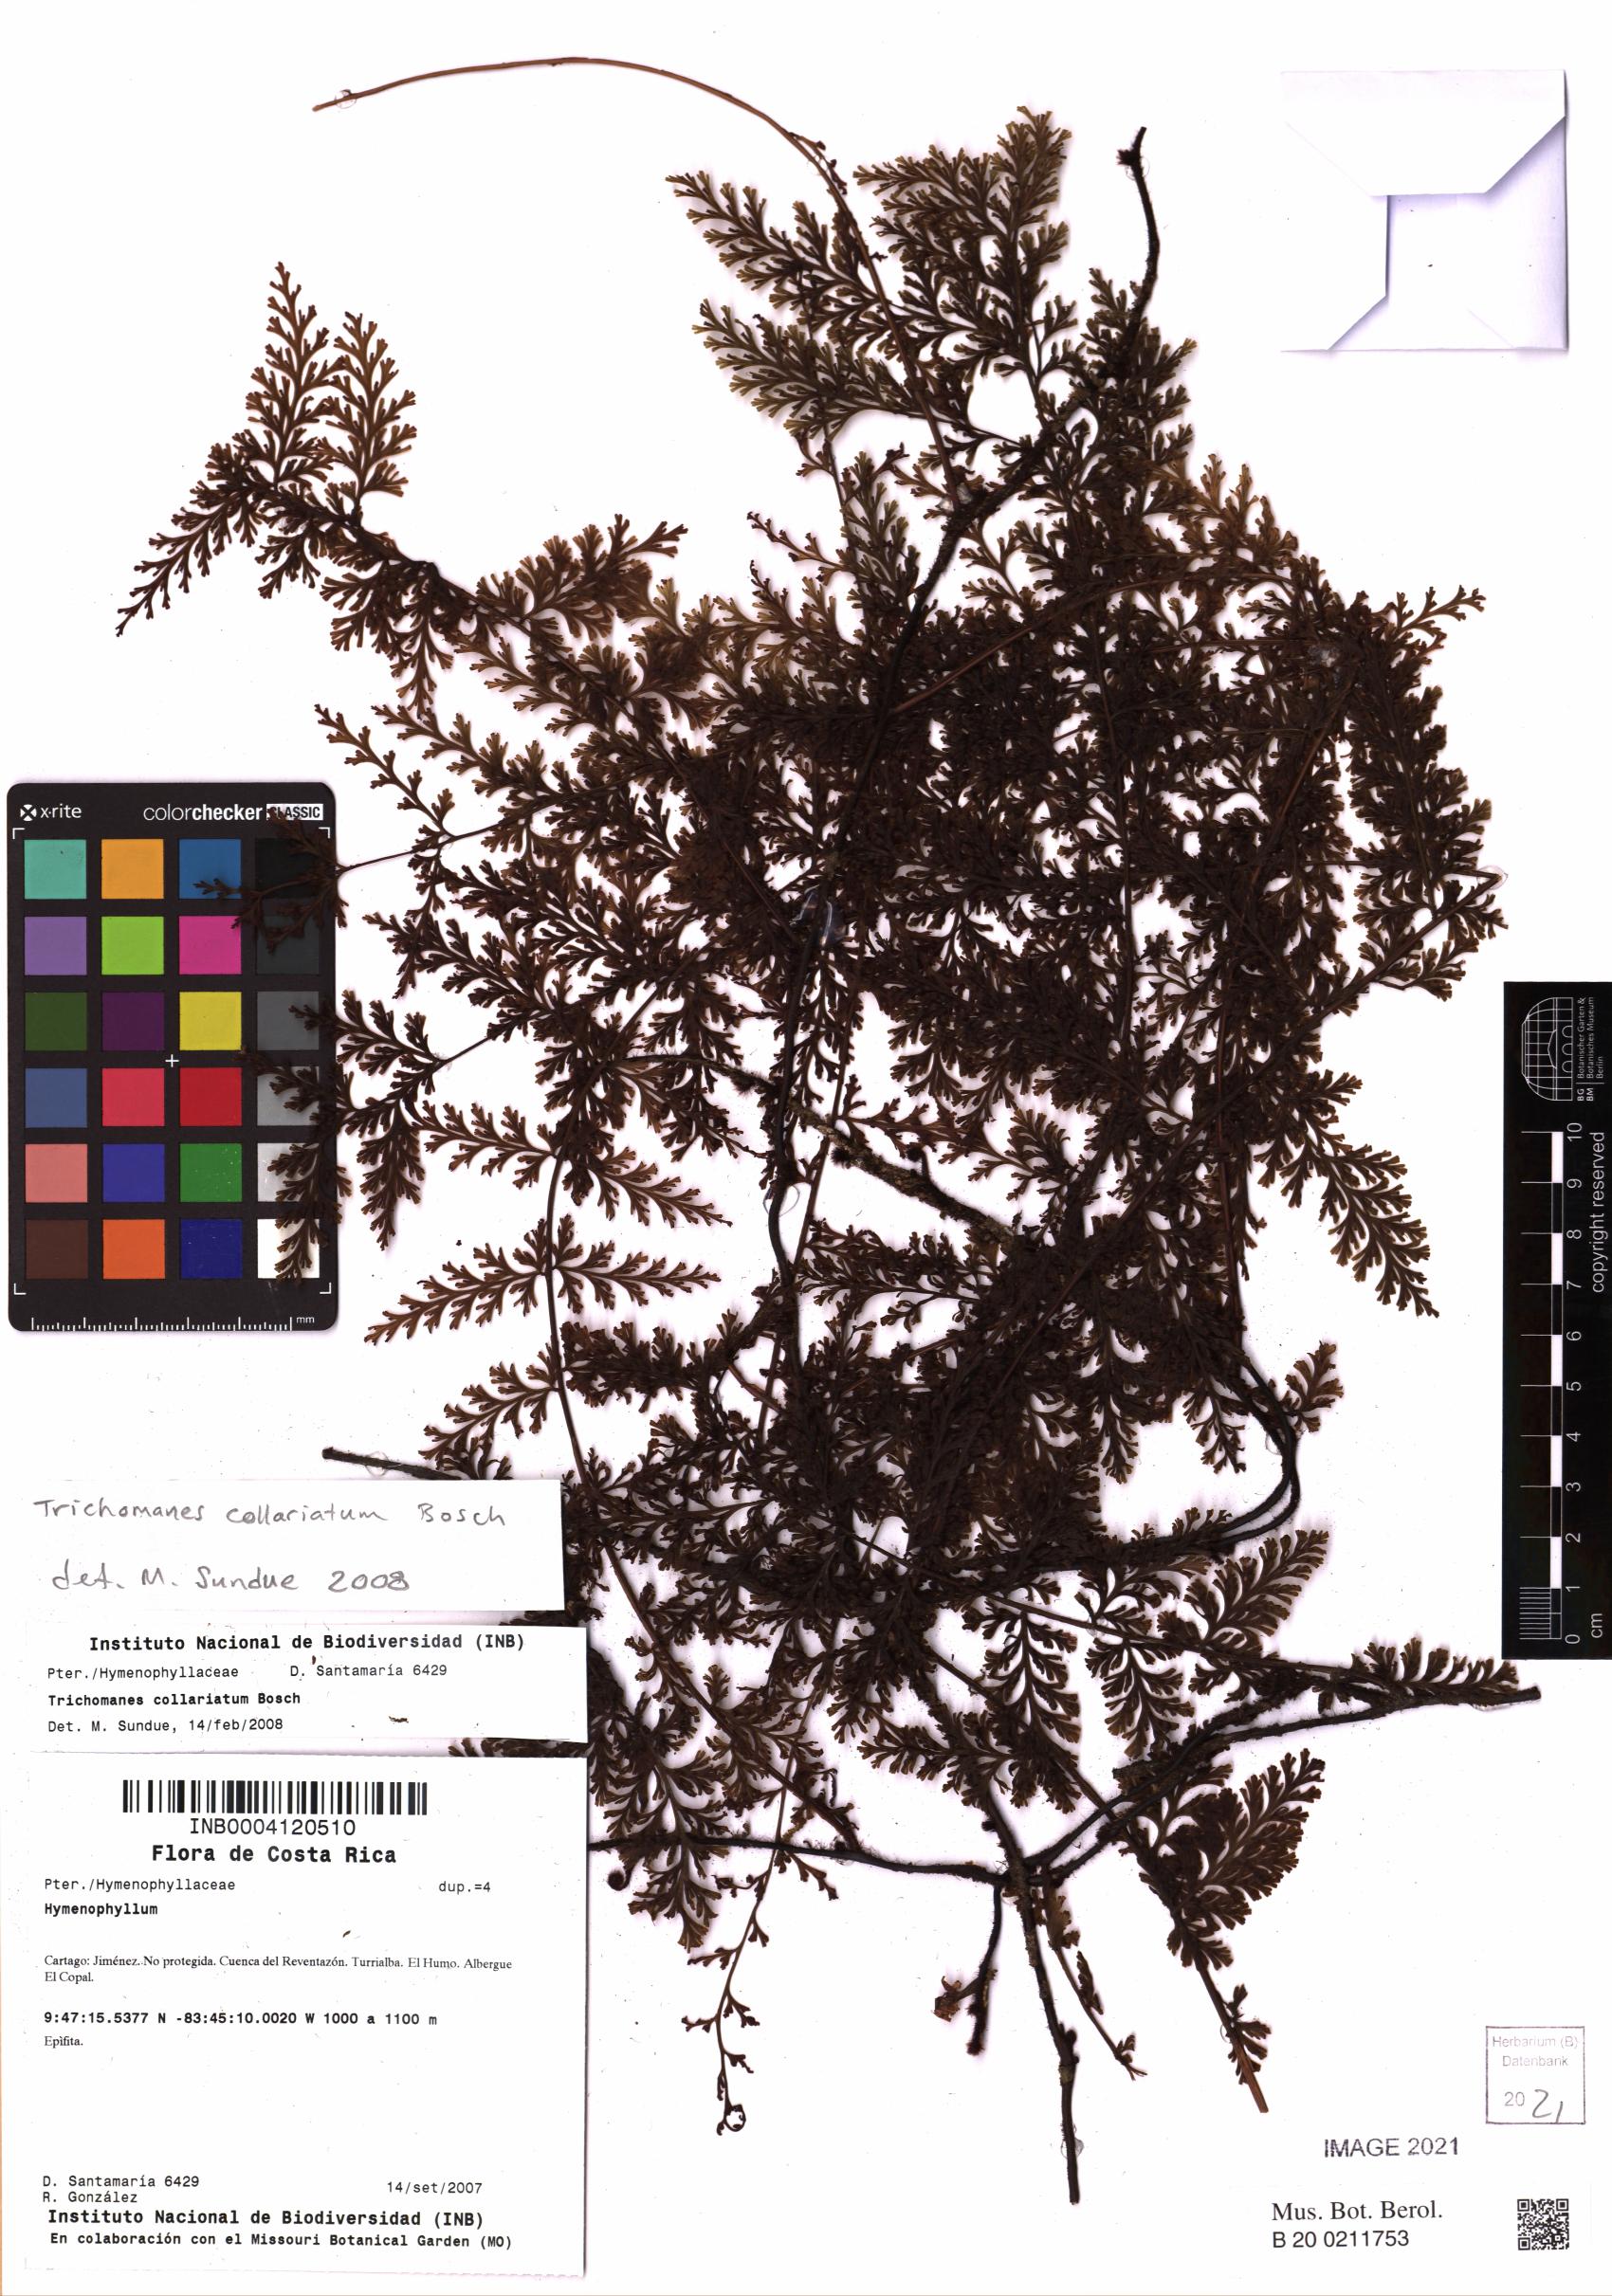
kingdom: Plantae
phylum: Tracheophyta
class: Polypodiopsida
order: Hymenophyllales
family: Hymenophyllaceae
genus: Vandenboschia
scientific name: Vandenboschia collariata
